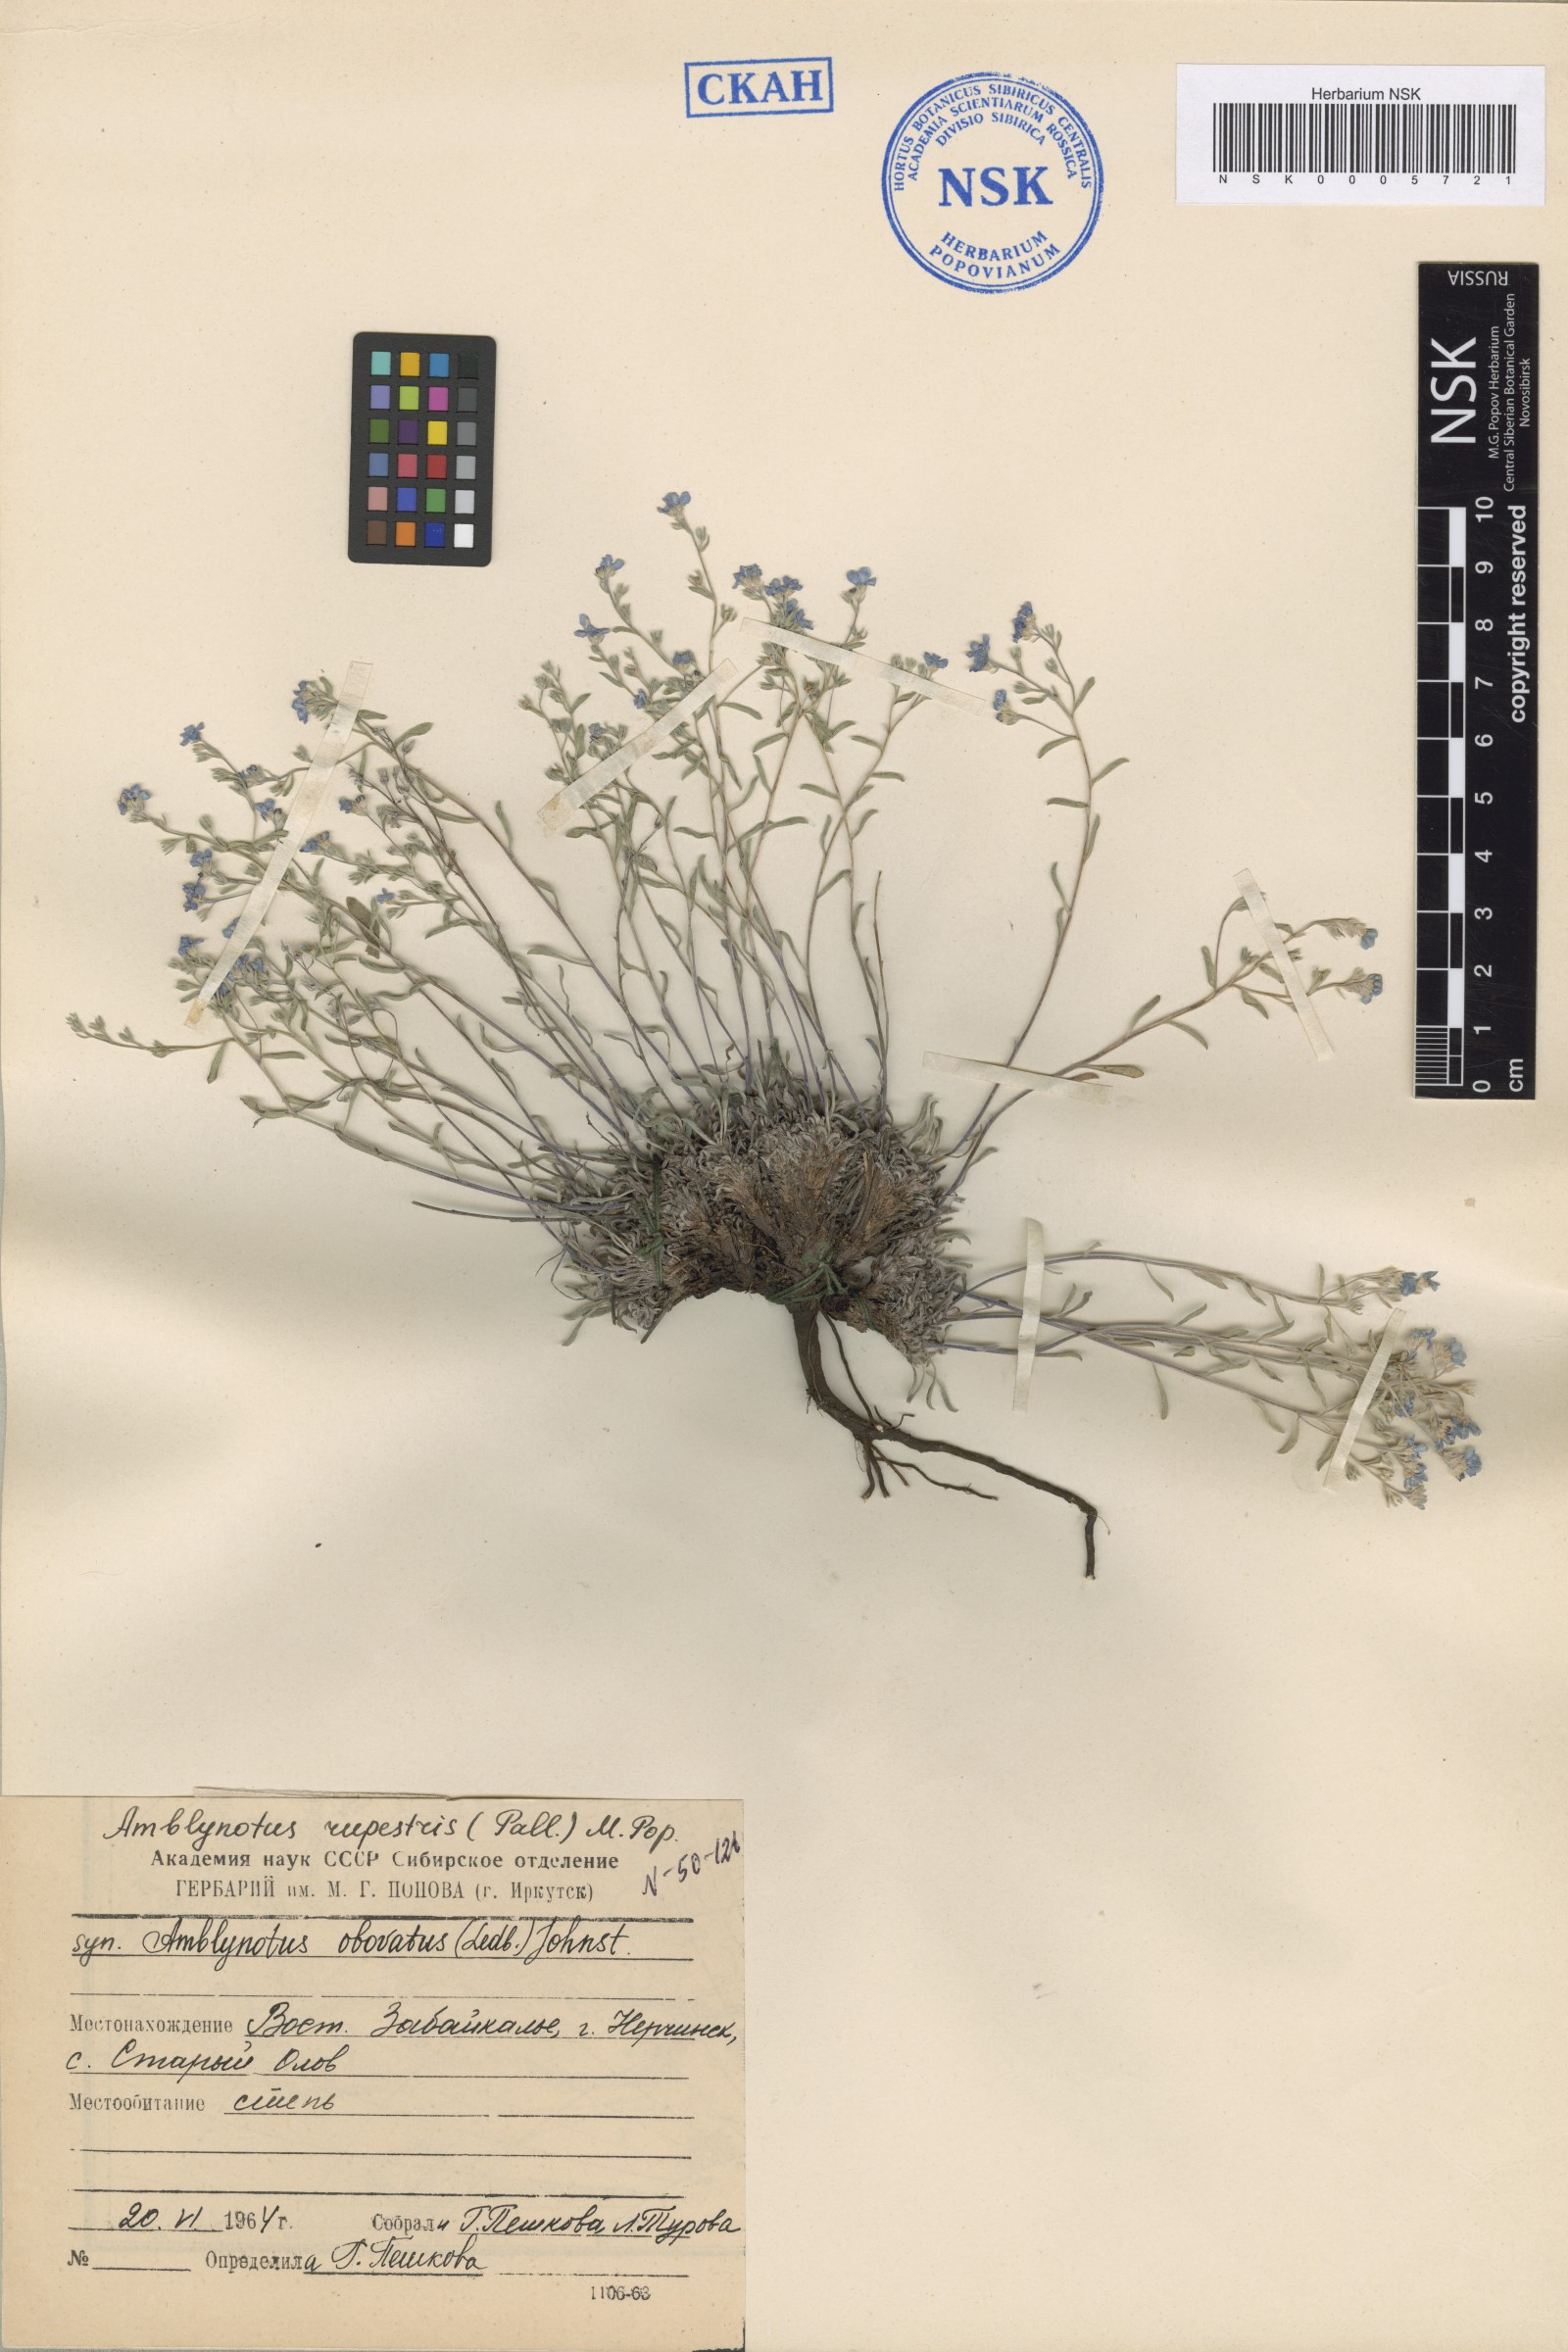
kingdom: Plantae
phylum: Tracheophyta
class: Magnoliopsida
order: Boraginales
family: Boraginaceae
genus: Eritrichium
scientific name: Eritrichium rupestre
